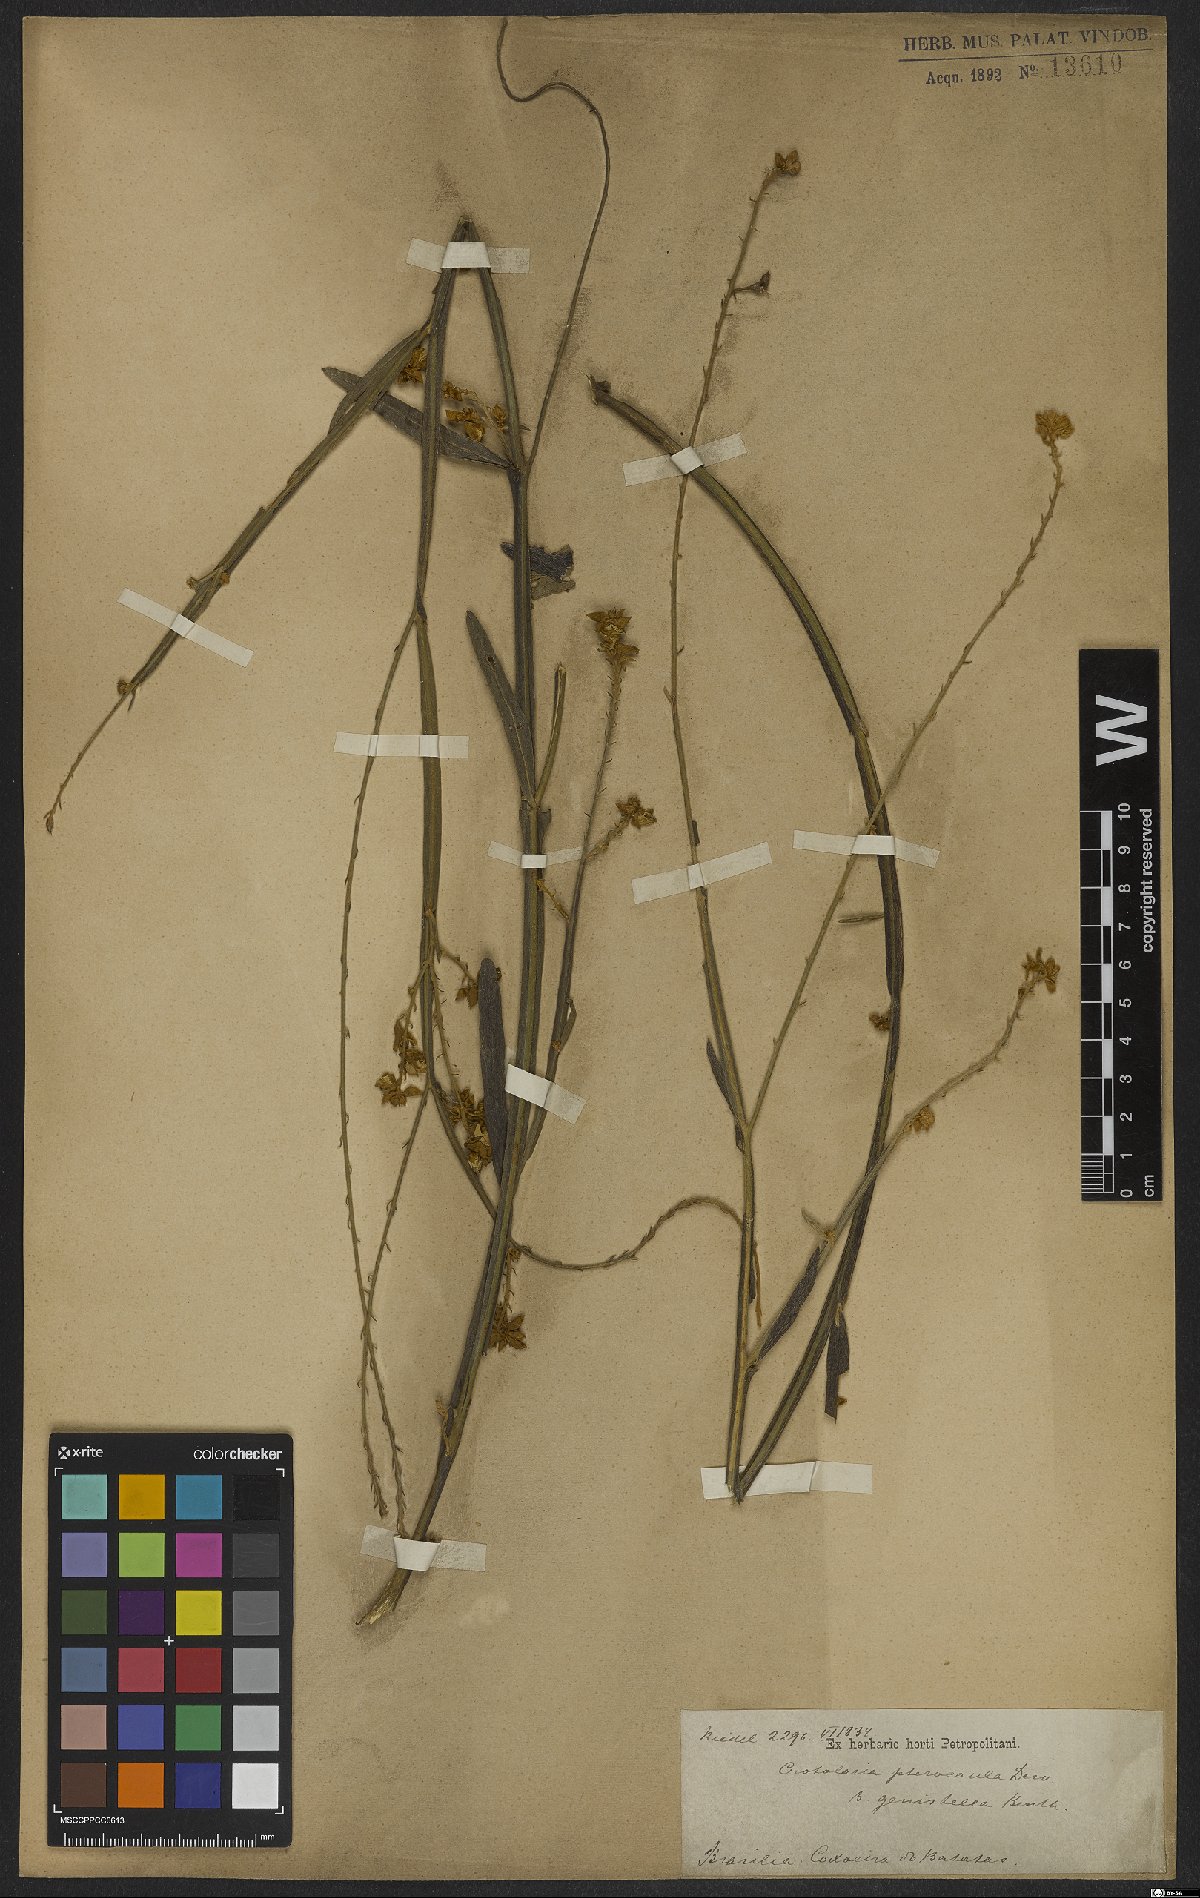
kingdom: Plantae
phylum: Tracheophyta
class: Magnoliopsida
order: Fabales
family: Fabaceae
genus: Crotalaria
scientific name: Crotalaria pilosa
